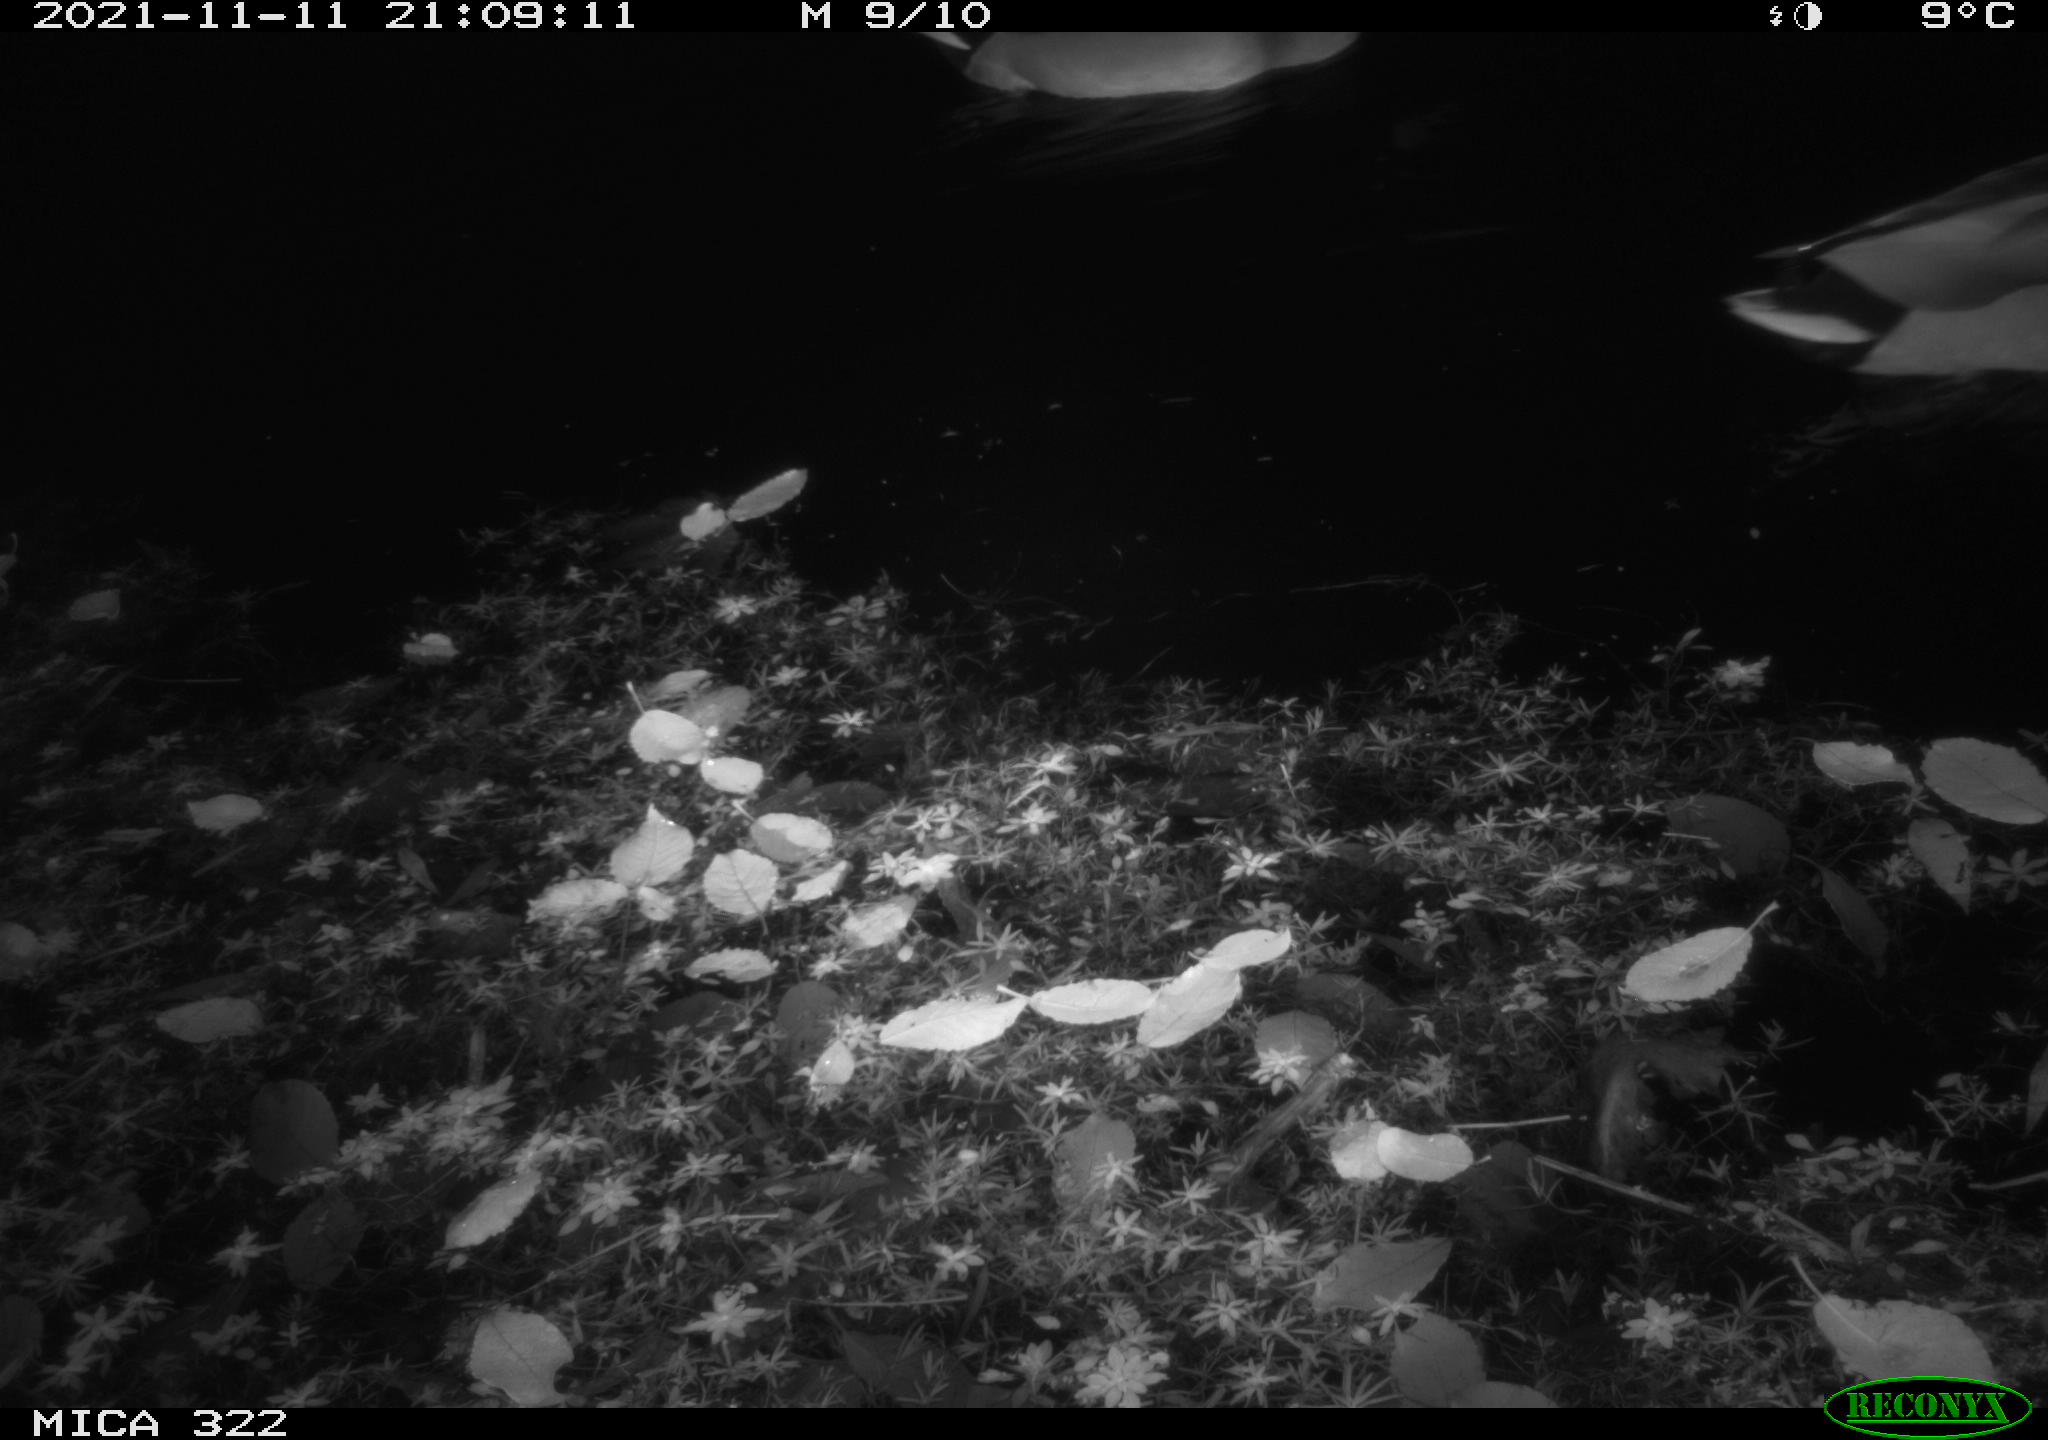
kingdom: Animalia
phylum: Chordata
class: Aves
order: Anseriformes
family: Anatidae
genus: Anas
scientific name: Anas platyrhynchos
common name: Mallard
